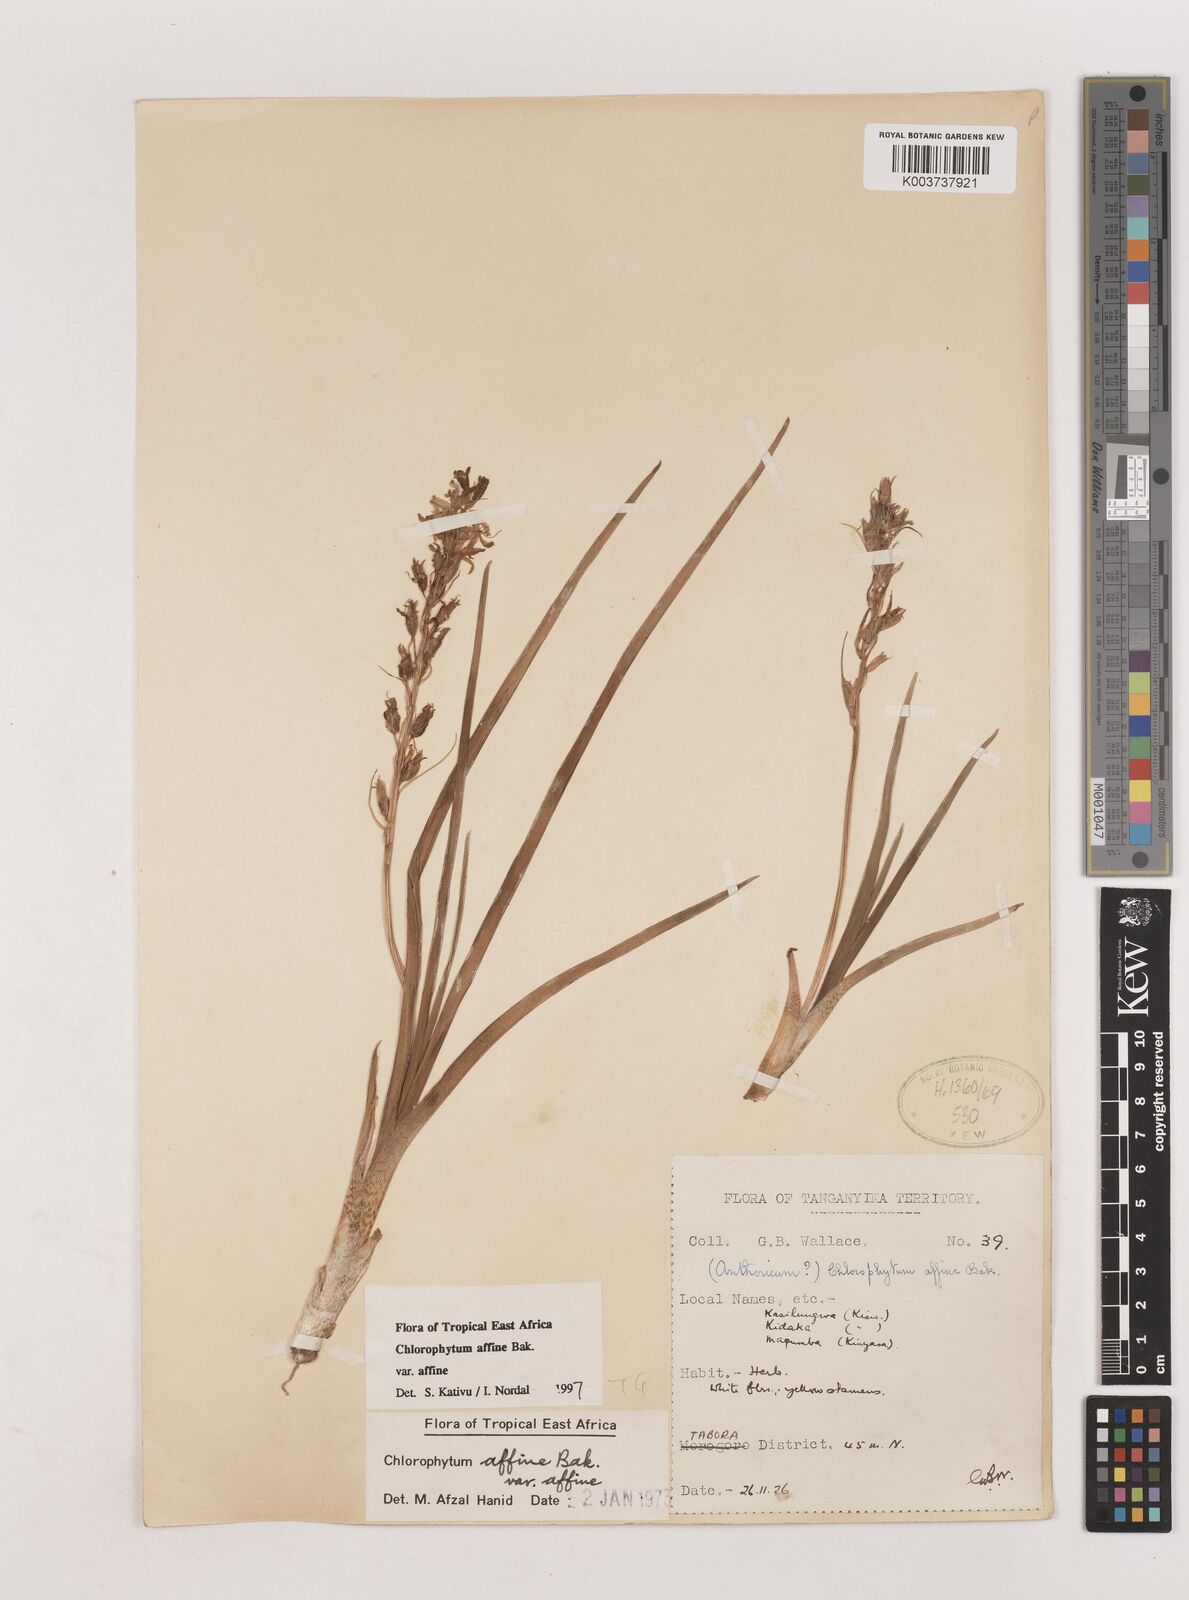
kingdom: Plantae
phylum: Tracheophyta
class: Liliopsida
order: Asparagales
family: Asparagaceae
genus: Chlorophytum
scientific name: Chlorophytum affine
